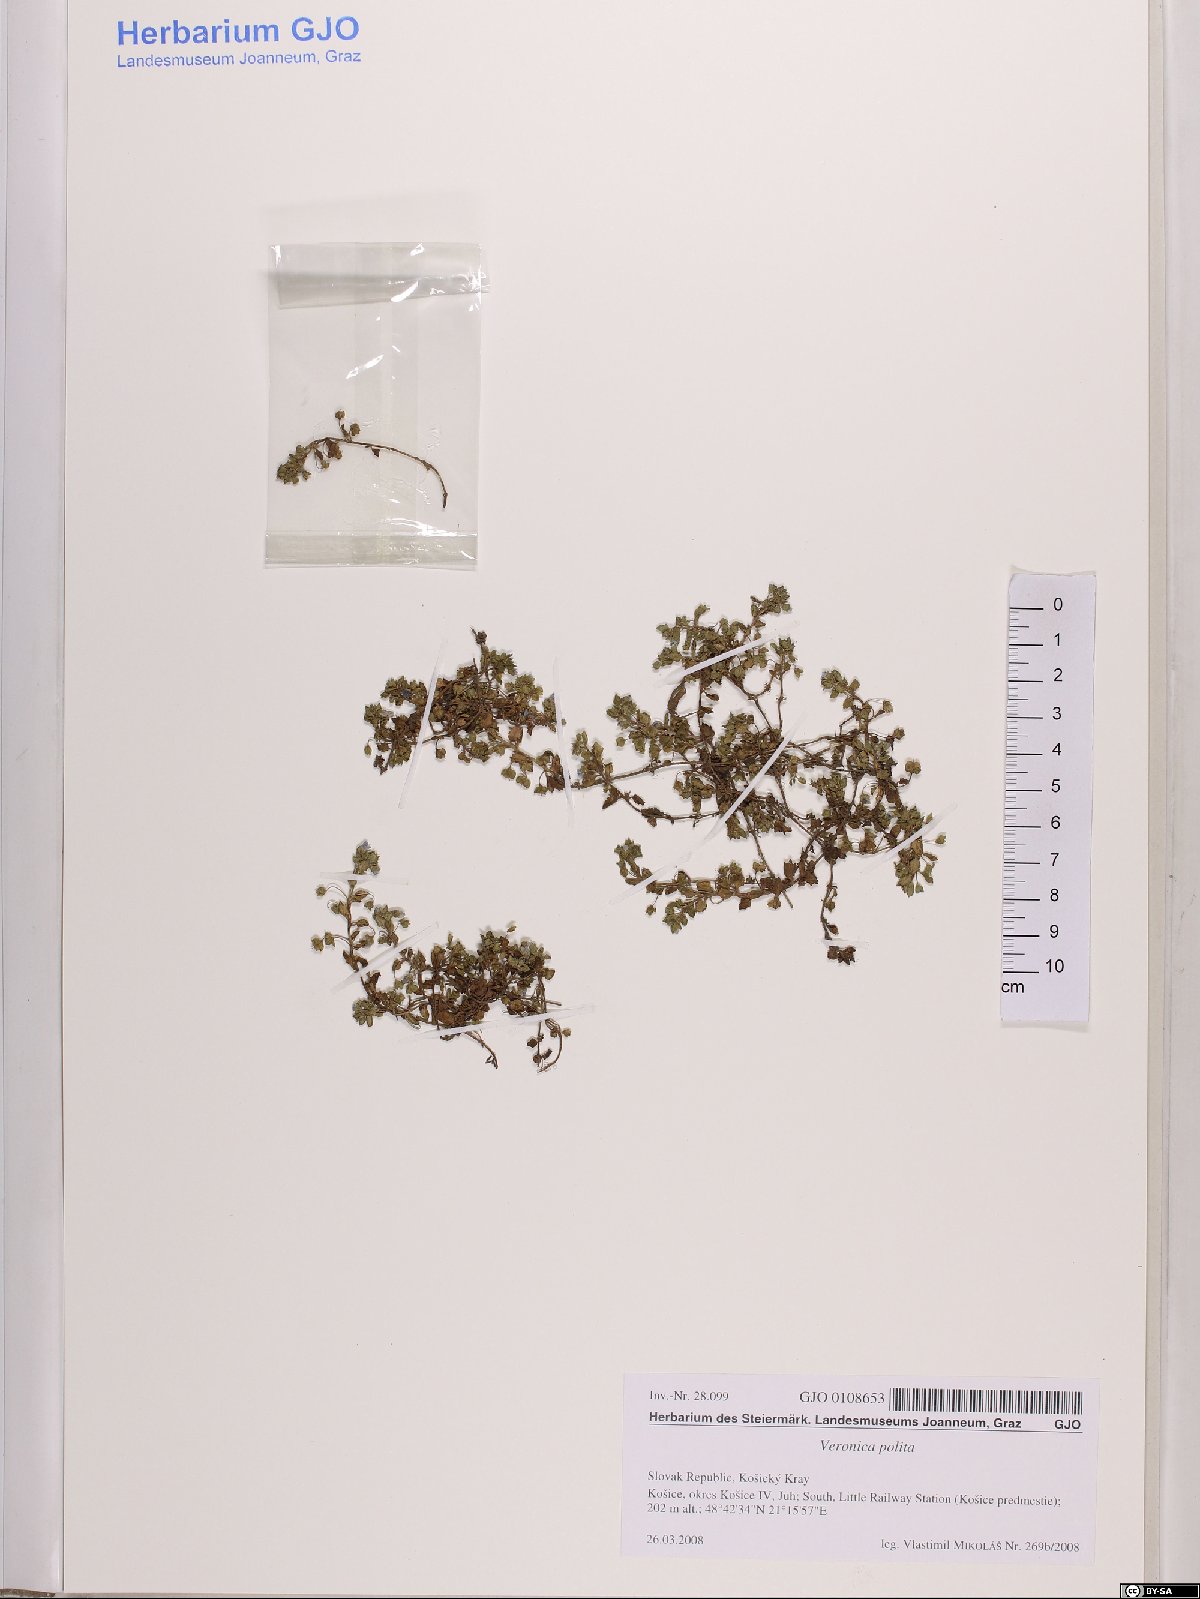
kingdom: Plantae
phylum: Tracheophyta
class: Magnoliopsida
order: Lamiales
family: Plantaginaceae
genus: Veronica
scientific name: Veronica polita
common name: Grey field-speedwell
